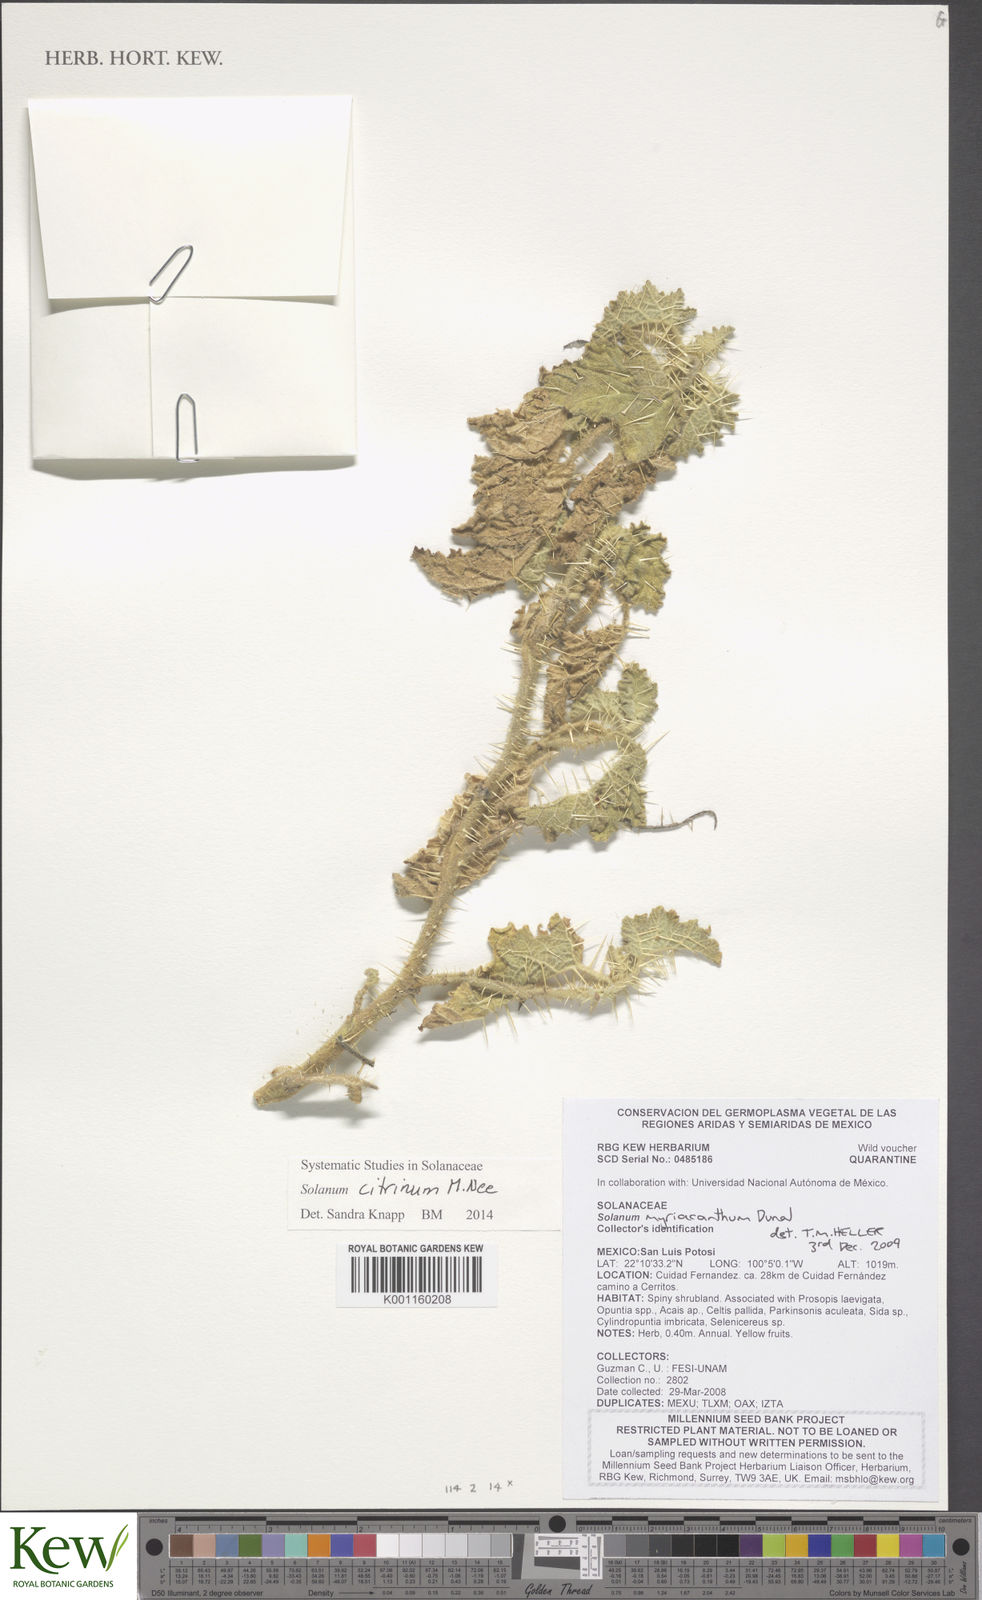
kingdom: Plantae
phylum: Tracheophyta
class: Magnoliopsida
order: Solanales
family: Solanaceae
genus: Solanum
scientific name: Solanum citrinum
